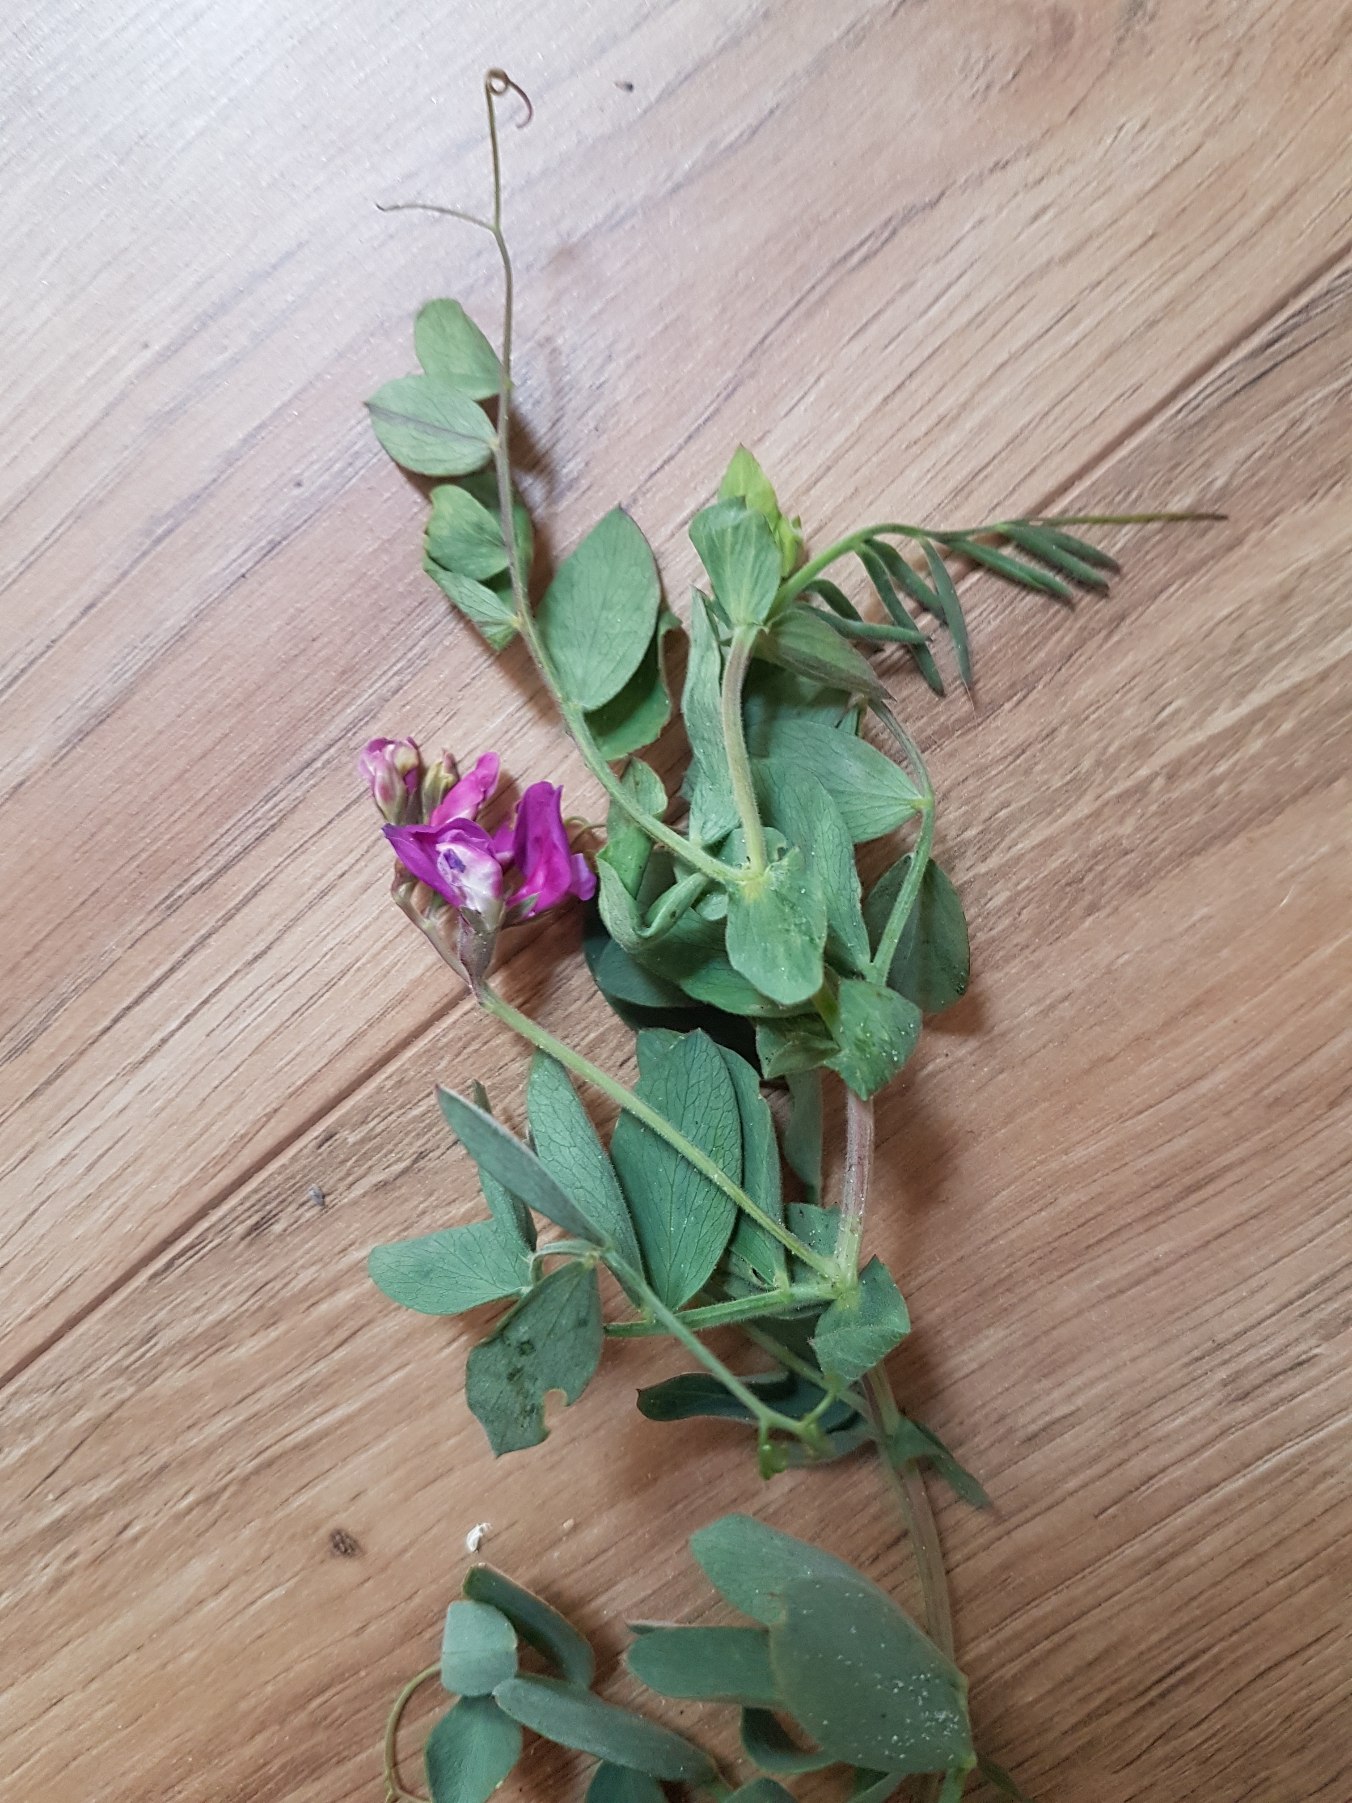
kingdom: Plantae
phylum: Tracheophyta
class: Magnoliopsida
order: Fabales
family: Fabaceae
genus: Lathyrus
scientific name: Lathyrus japonicus
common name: Strand-fladbælg
